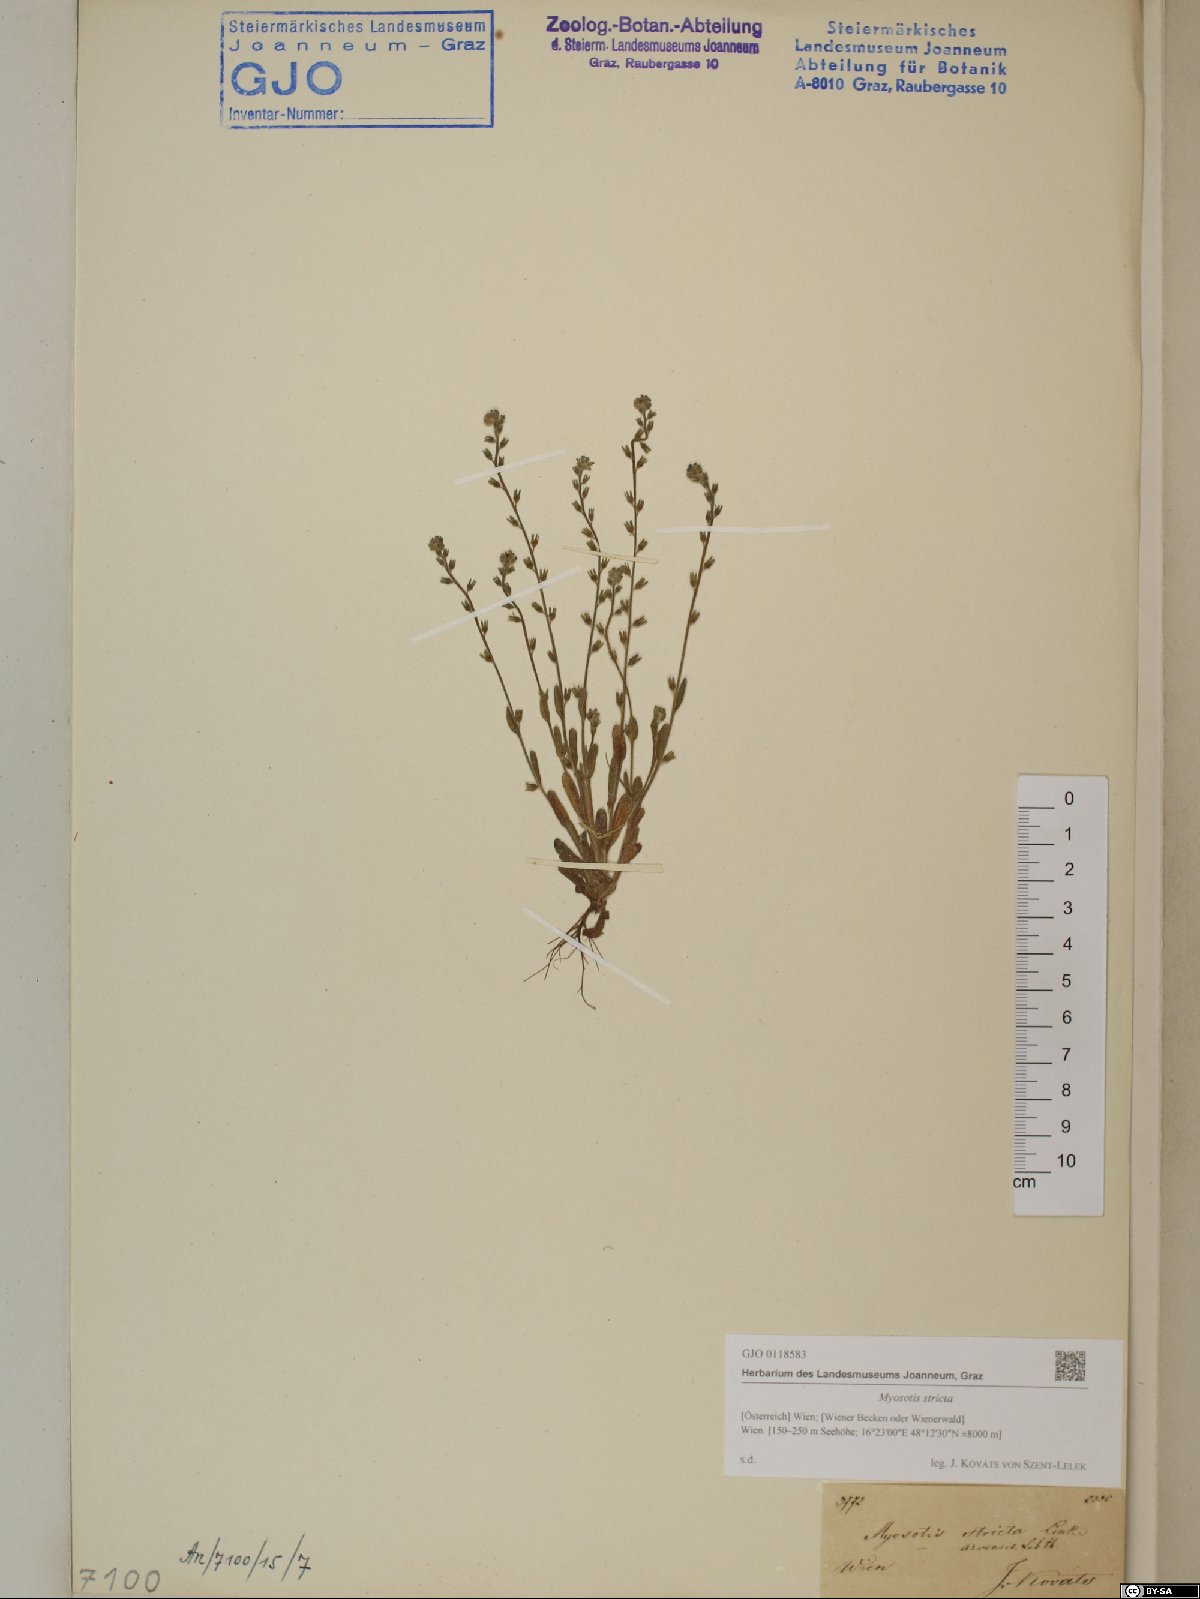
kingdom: Plantae
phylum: Tracheophyta
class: Magnoliopsida
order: Boraginales
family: Boraginaceae
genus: Myosotis
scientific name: Myosotis stricta
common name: Strict forget-me-not
